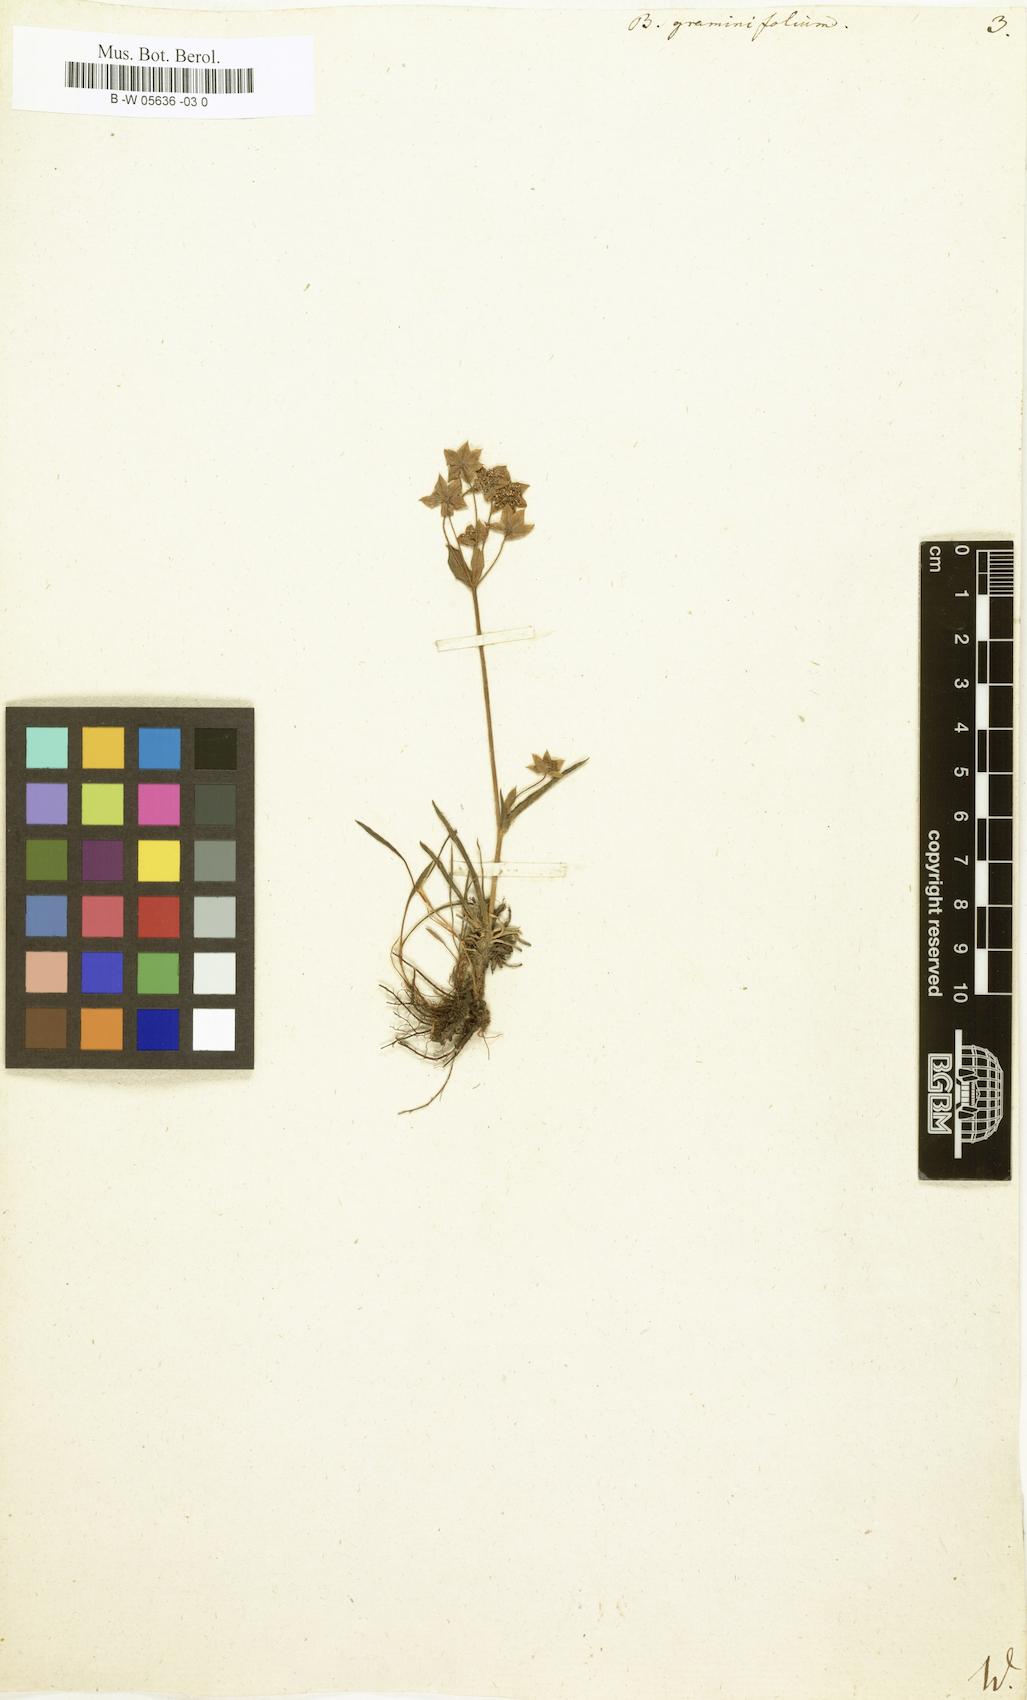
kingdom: Plantae
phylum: Tracheophyta
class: Magnoliopsida
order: Apiales
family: Apiaceae
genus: Bupleurum
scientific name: Bupleurum
